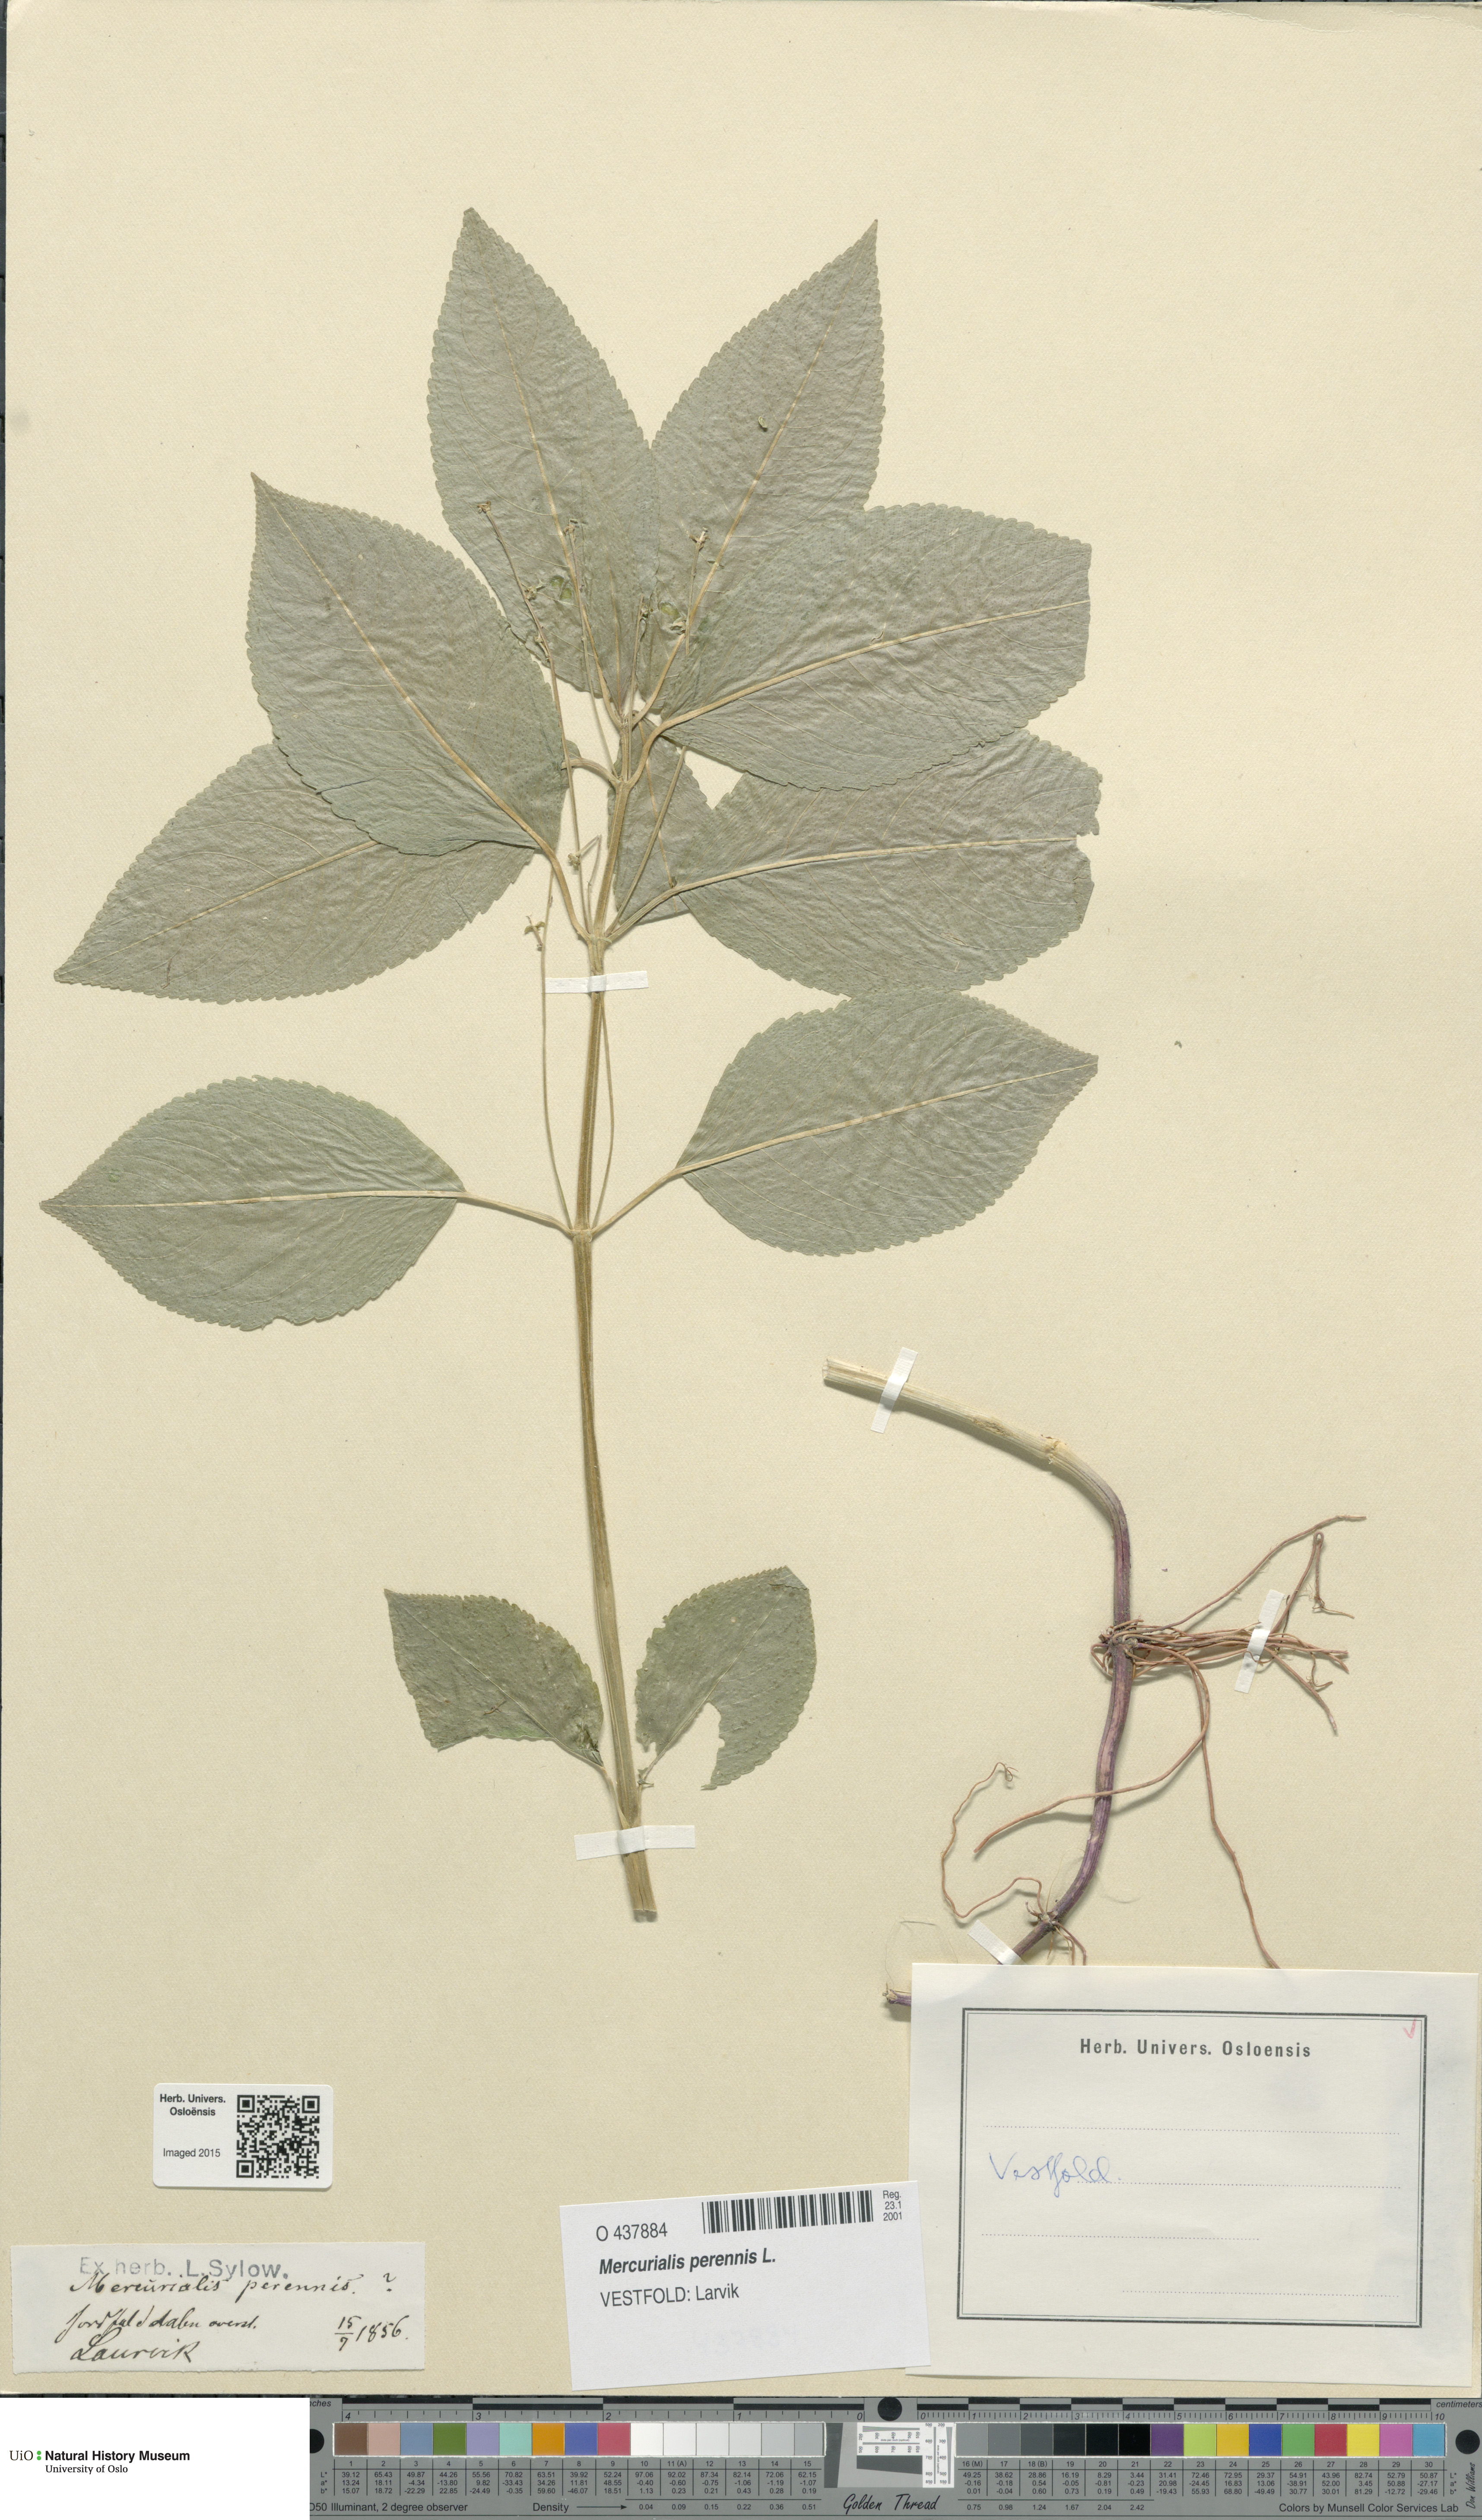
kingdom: Plantae
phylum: Tracheophyta
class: Magnoliopsida
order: Malpighiales
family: Euphorbiaceae
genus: Mercurialis
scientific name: Mercurialis perennis
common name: Dog mercury
